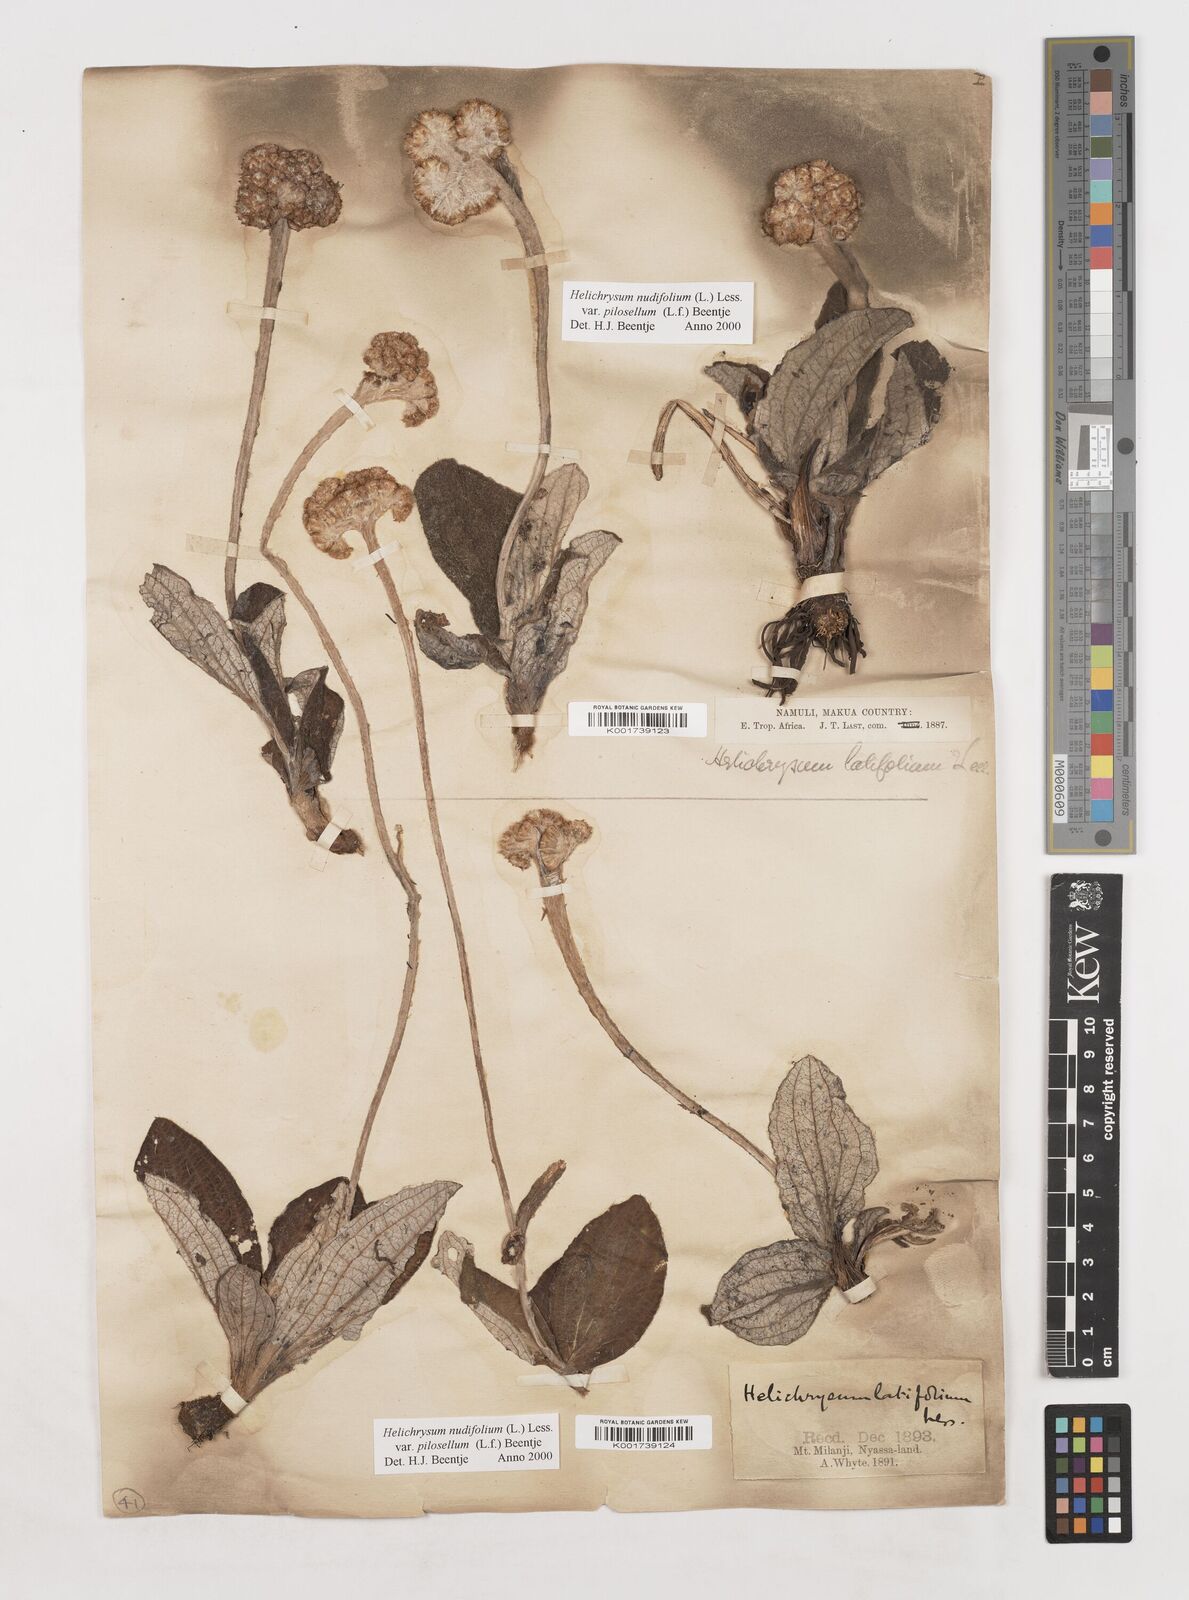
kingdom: Plantae
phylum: Tracheophyta
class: Magnoliopsida
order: Asterales
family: Asteraceae
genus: Helichrysum
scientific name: Helichrysum nudifolium
